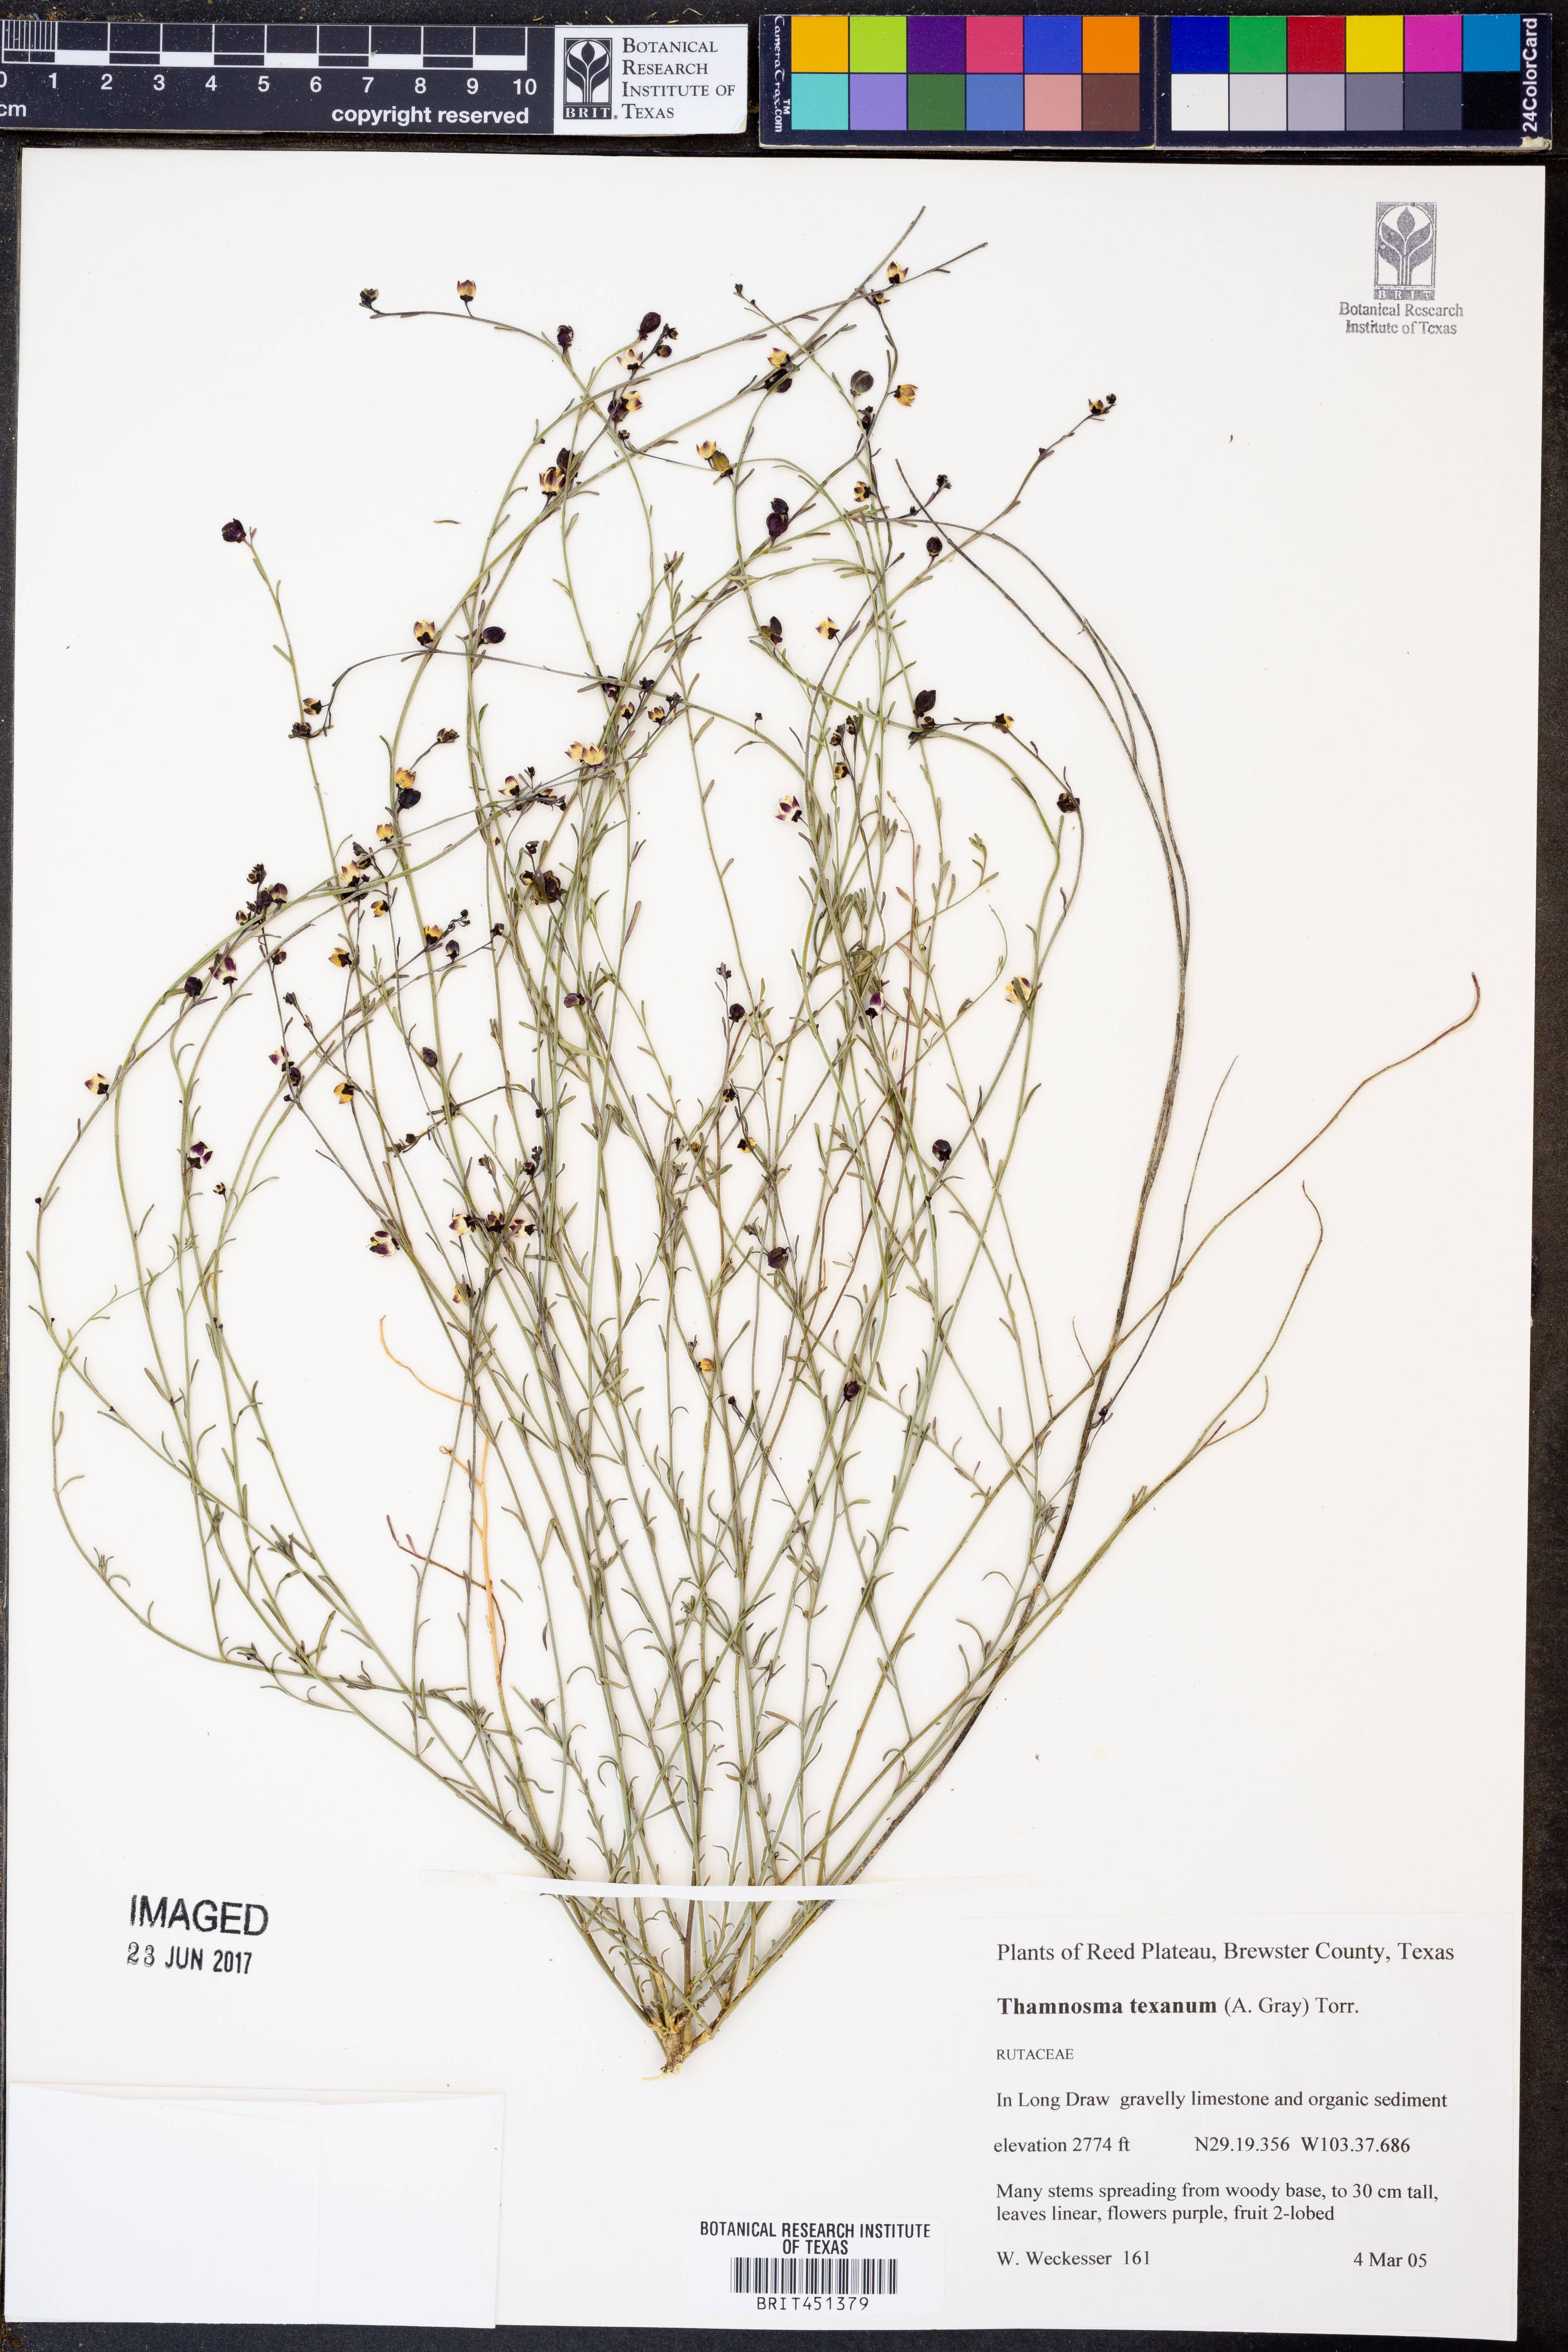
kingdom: Plantae
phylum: Tracheophyta
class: Magnoliopsida
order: Sapindales
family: Rutaceae
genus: Thamnosma
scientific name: Thamnosma texana
